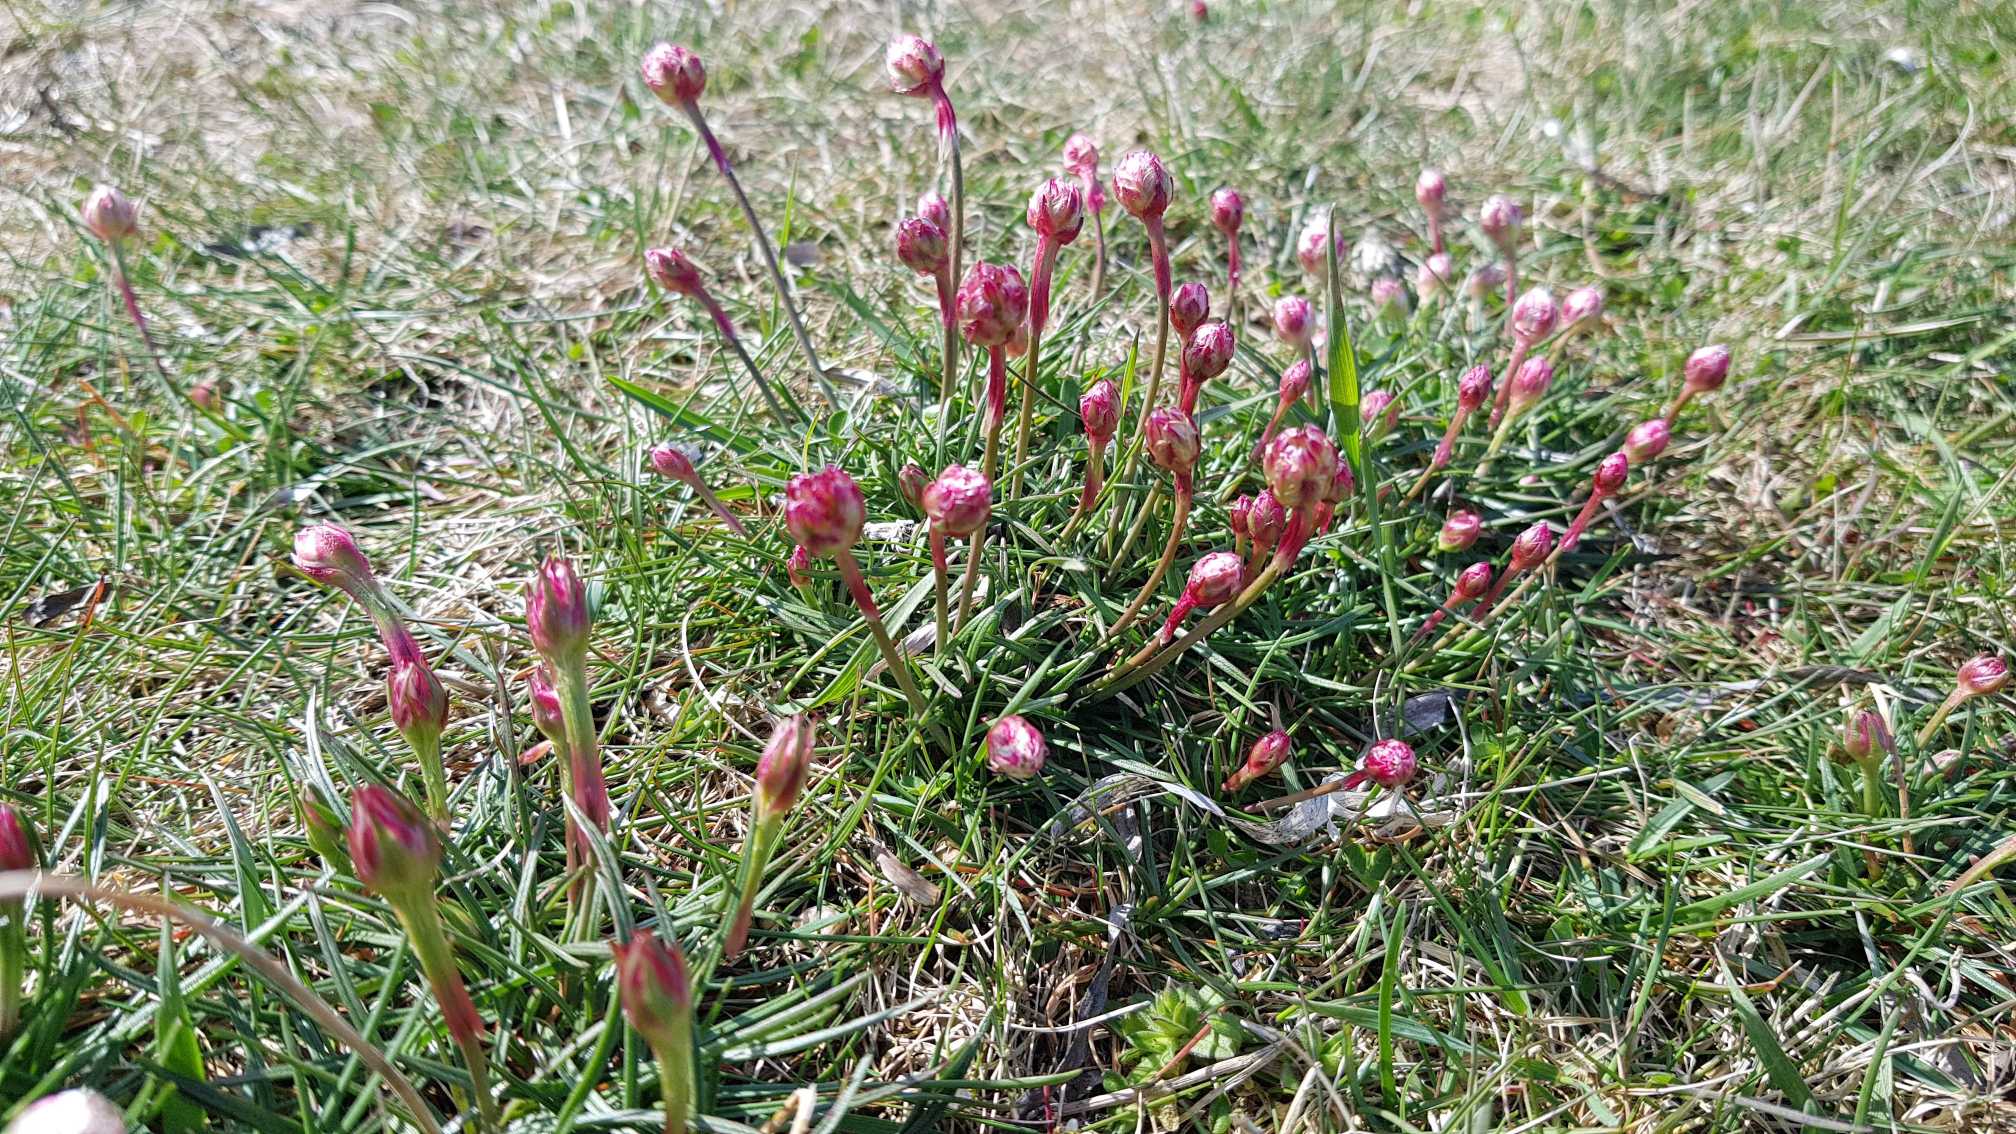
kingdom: Plantae
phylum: Tracheophyta
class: Magnoliopsida
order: Caryophyllales
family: Plumbaginaceae
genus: Armeria
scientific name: Armeria maritima
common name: Engelskgræs
